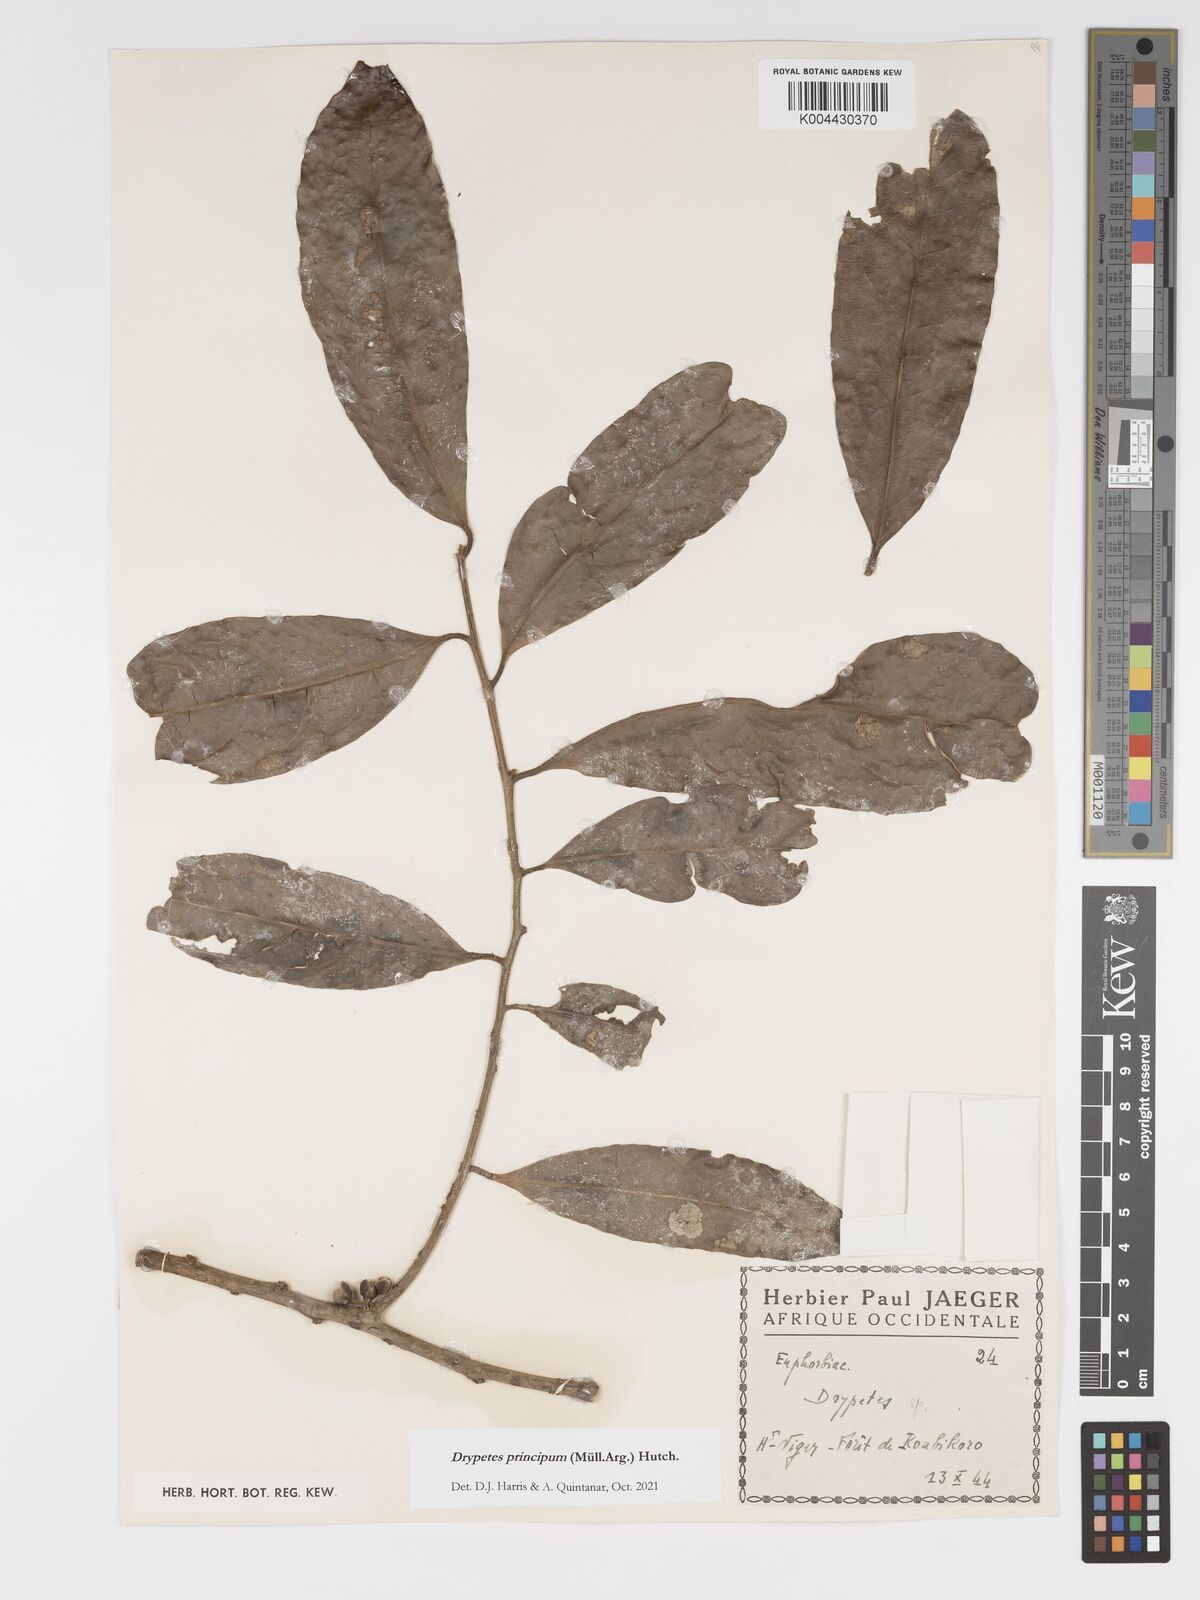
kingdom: Plantae
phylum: Tracheophyta
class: Magnoliopsida
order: Malpighiales
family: Putranjivaceae
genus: Drypetes
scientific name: Drypetes principum
